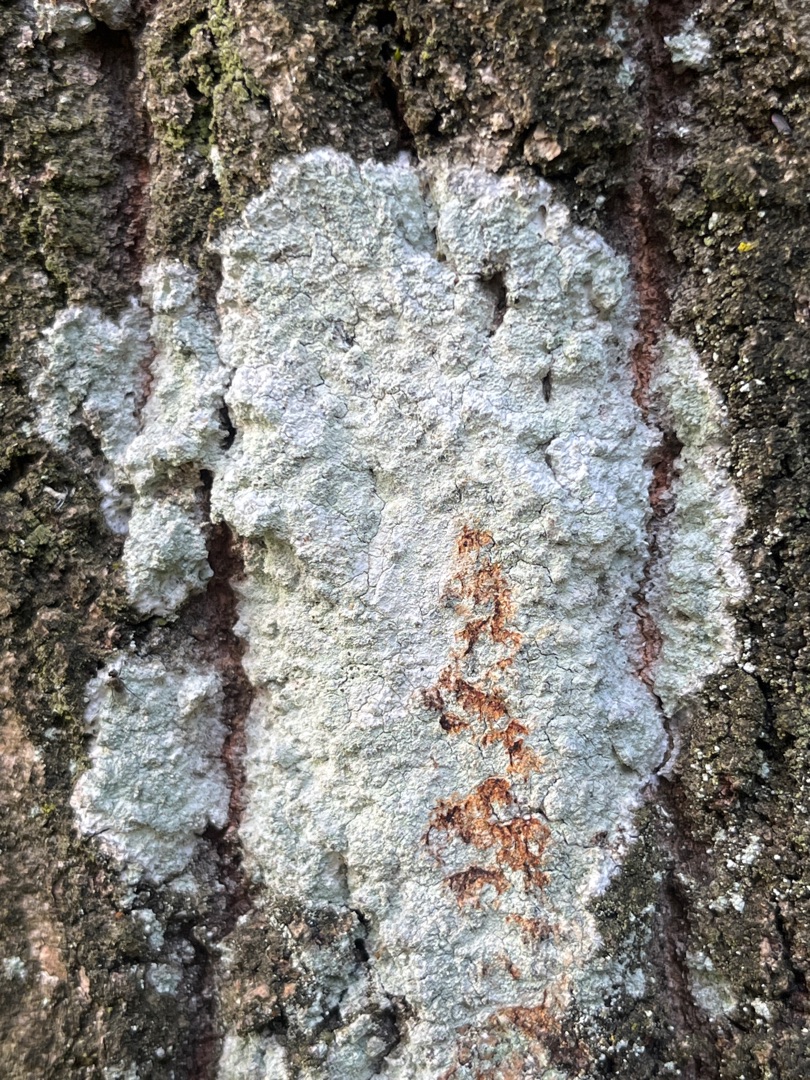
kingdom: Fungi
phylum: Ascomycota
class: Lecanoromycetes
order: Ostropales
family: Phlyctidaceae
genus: Phlyctis
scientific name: Phlyctis argena
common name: Almindelig sølvlav
